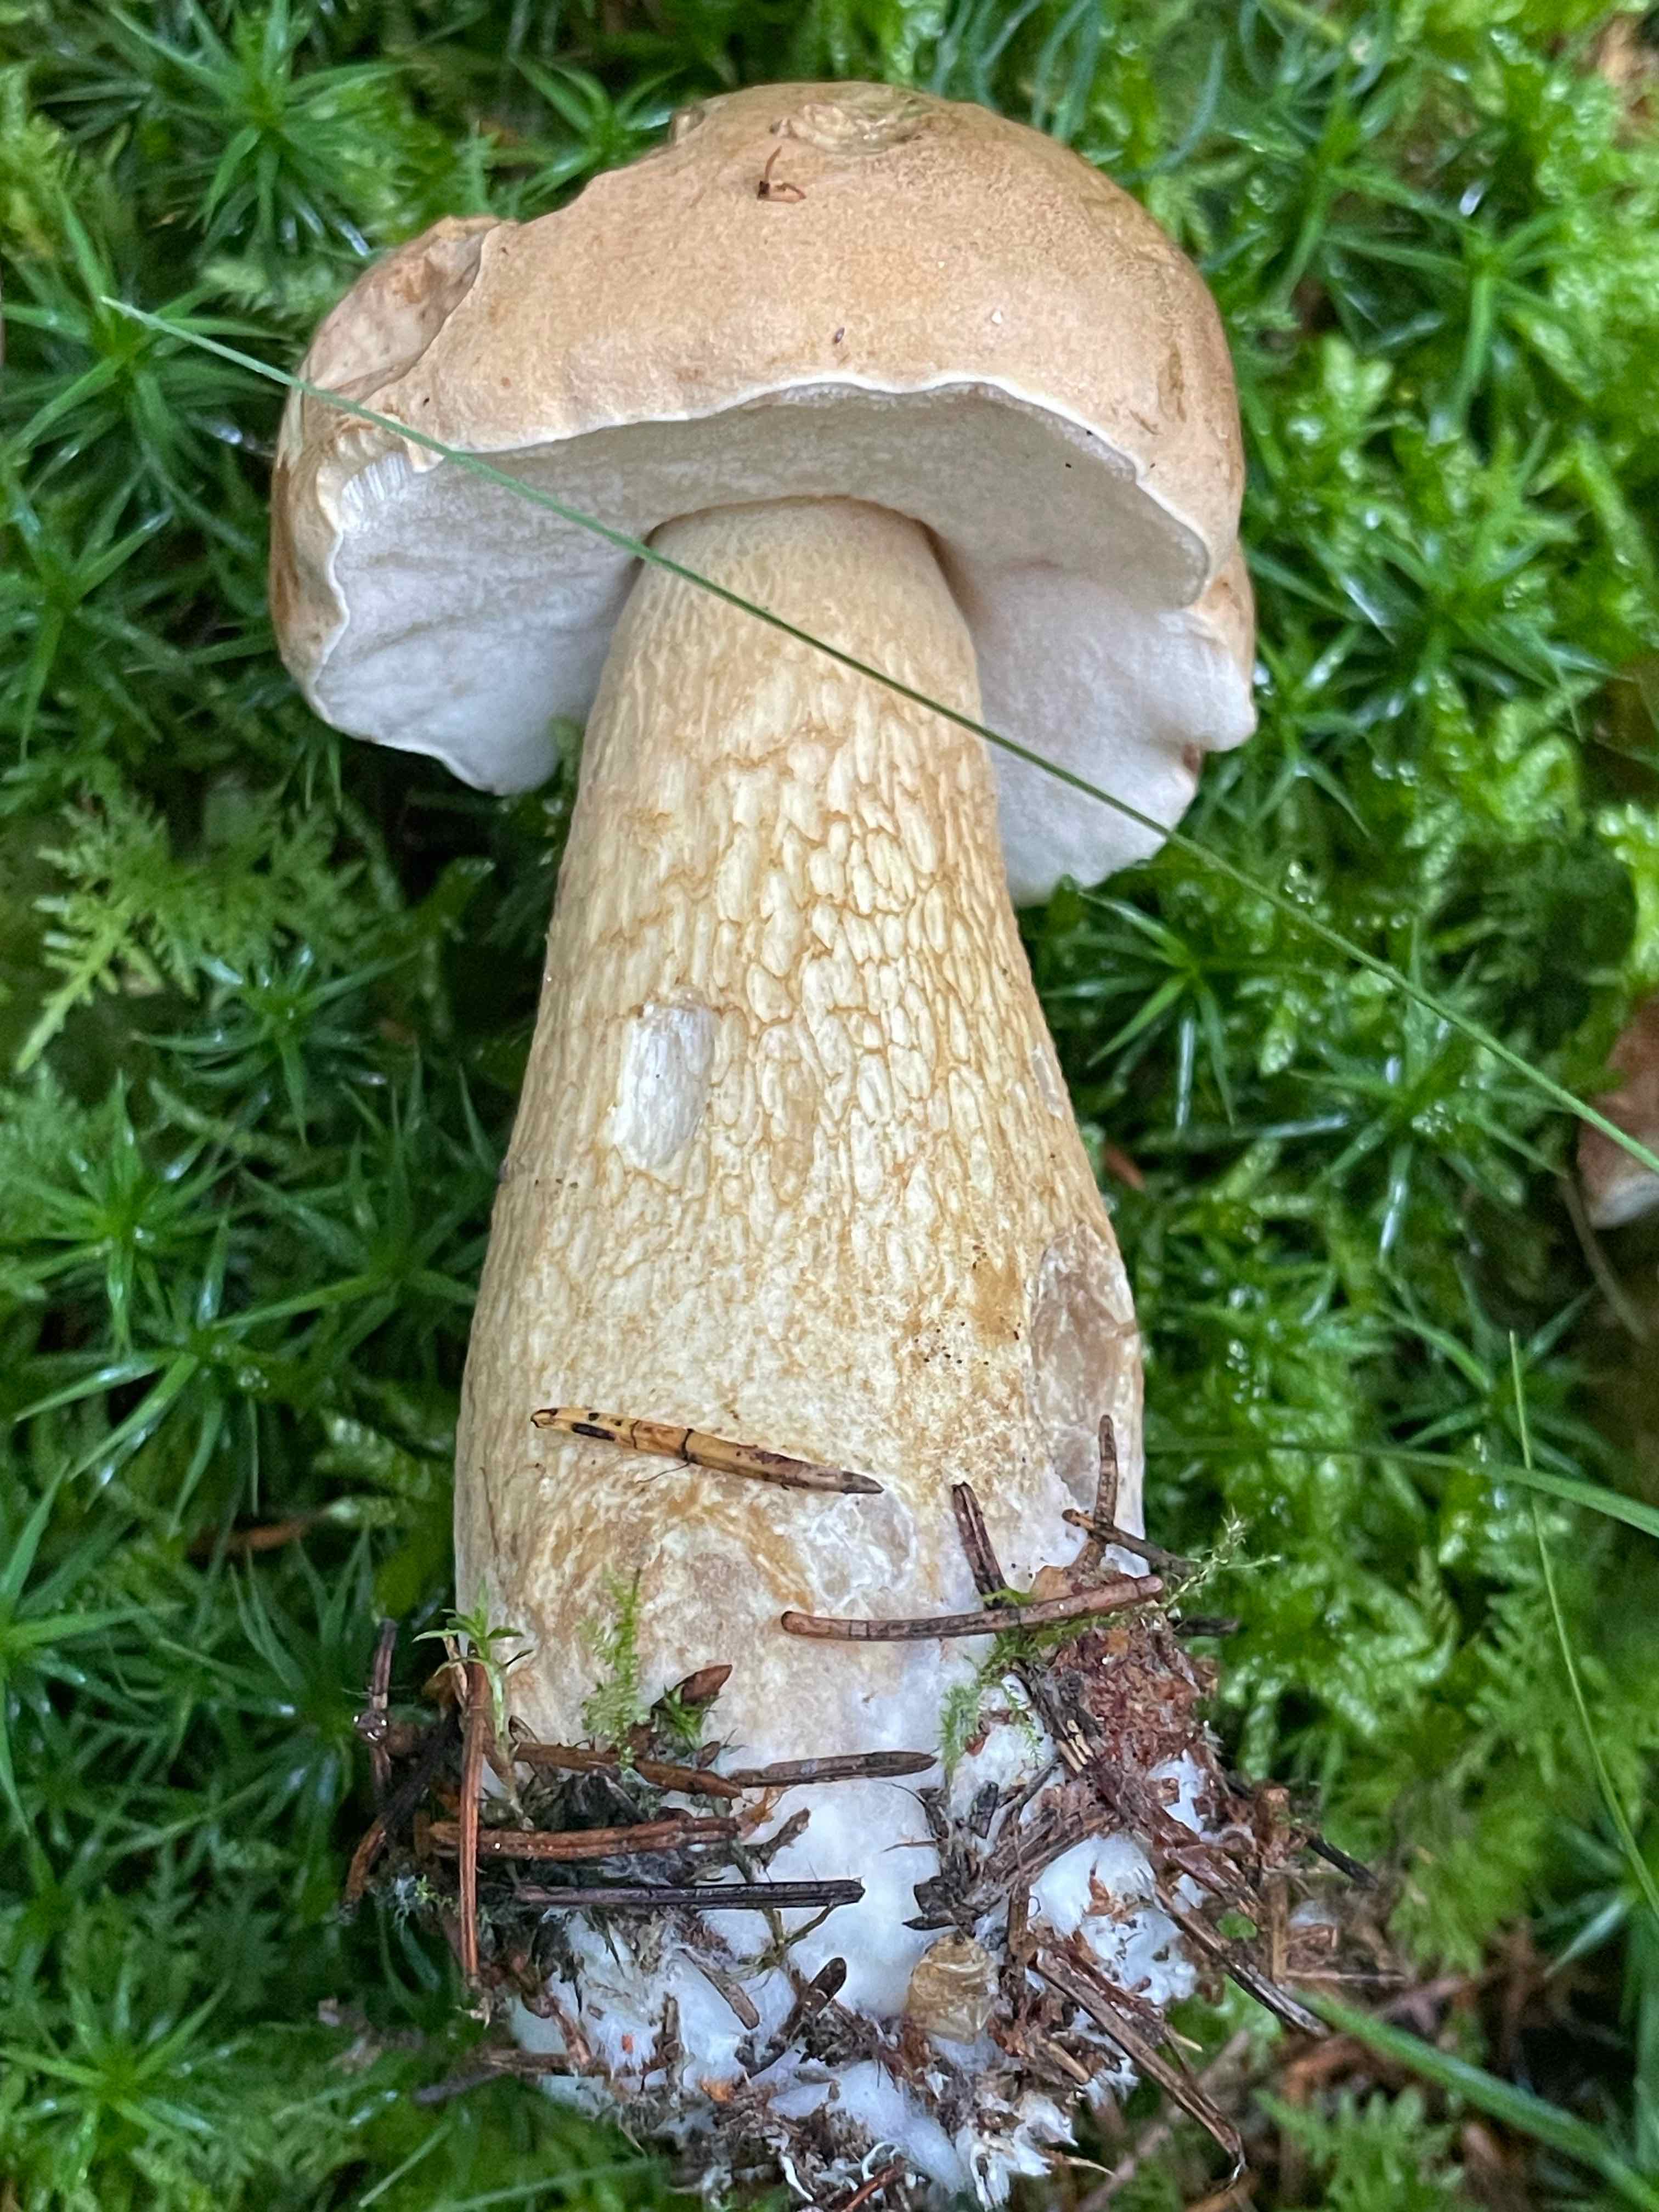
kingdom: Fungi
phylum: Basidiomycota
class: Agaricomycetes
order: Boletales
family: Boletaceae
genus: Tylopilus
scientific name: Tylopilus felleus
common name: galderørhat
